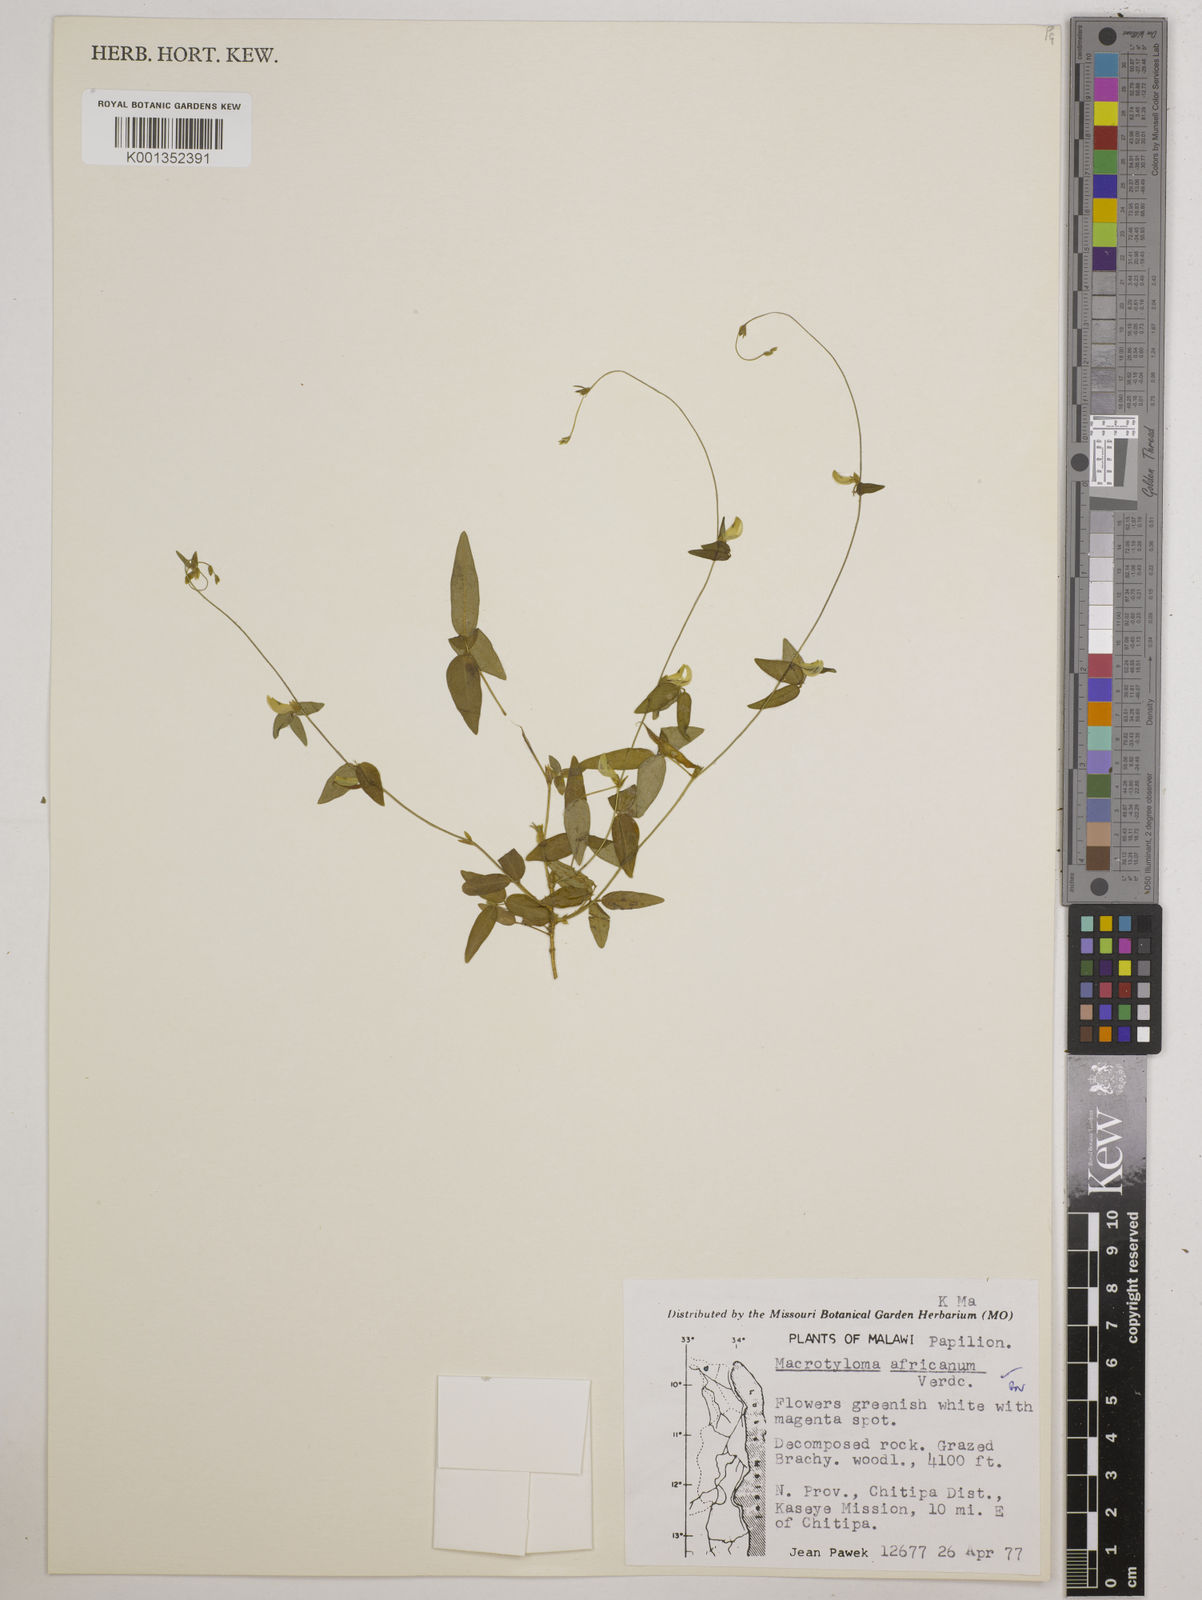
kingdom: Plantae
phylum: Tracheophyta
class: Magnoliopsida
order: Fabales
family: Fabaceae
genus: Macrotyloma
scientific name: Macrotyloma africanum
